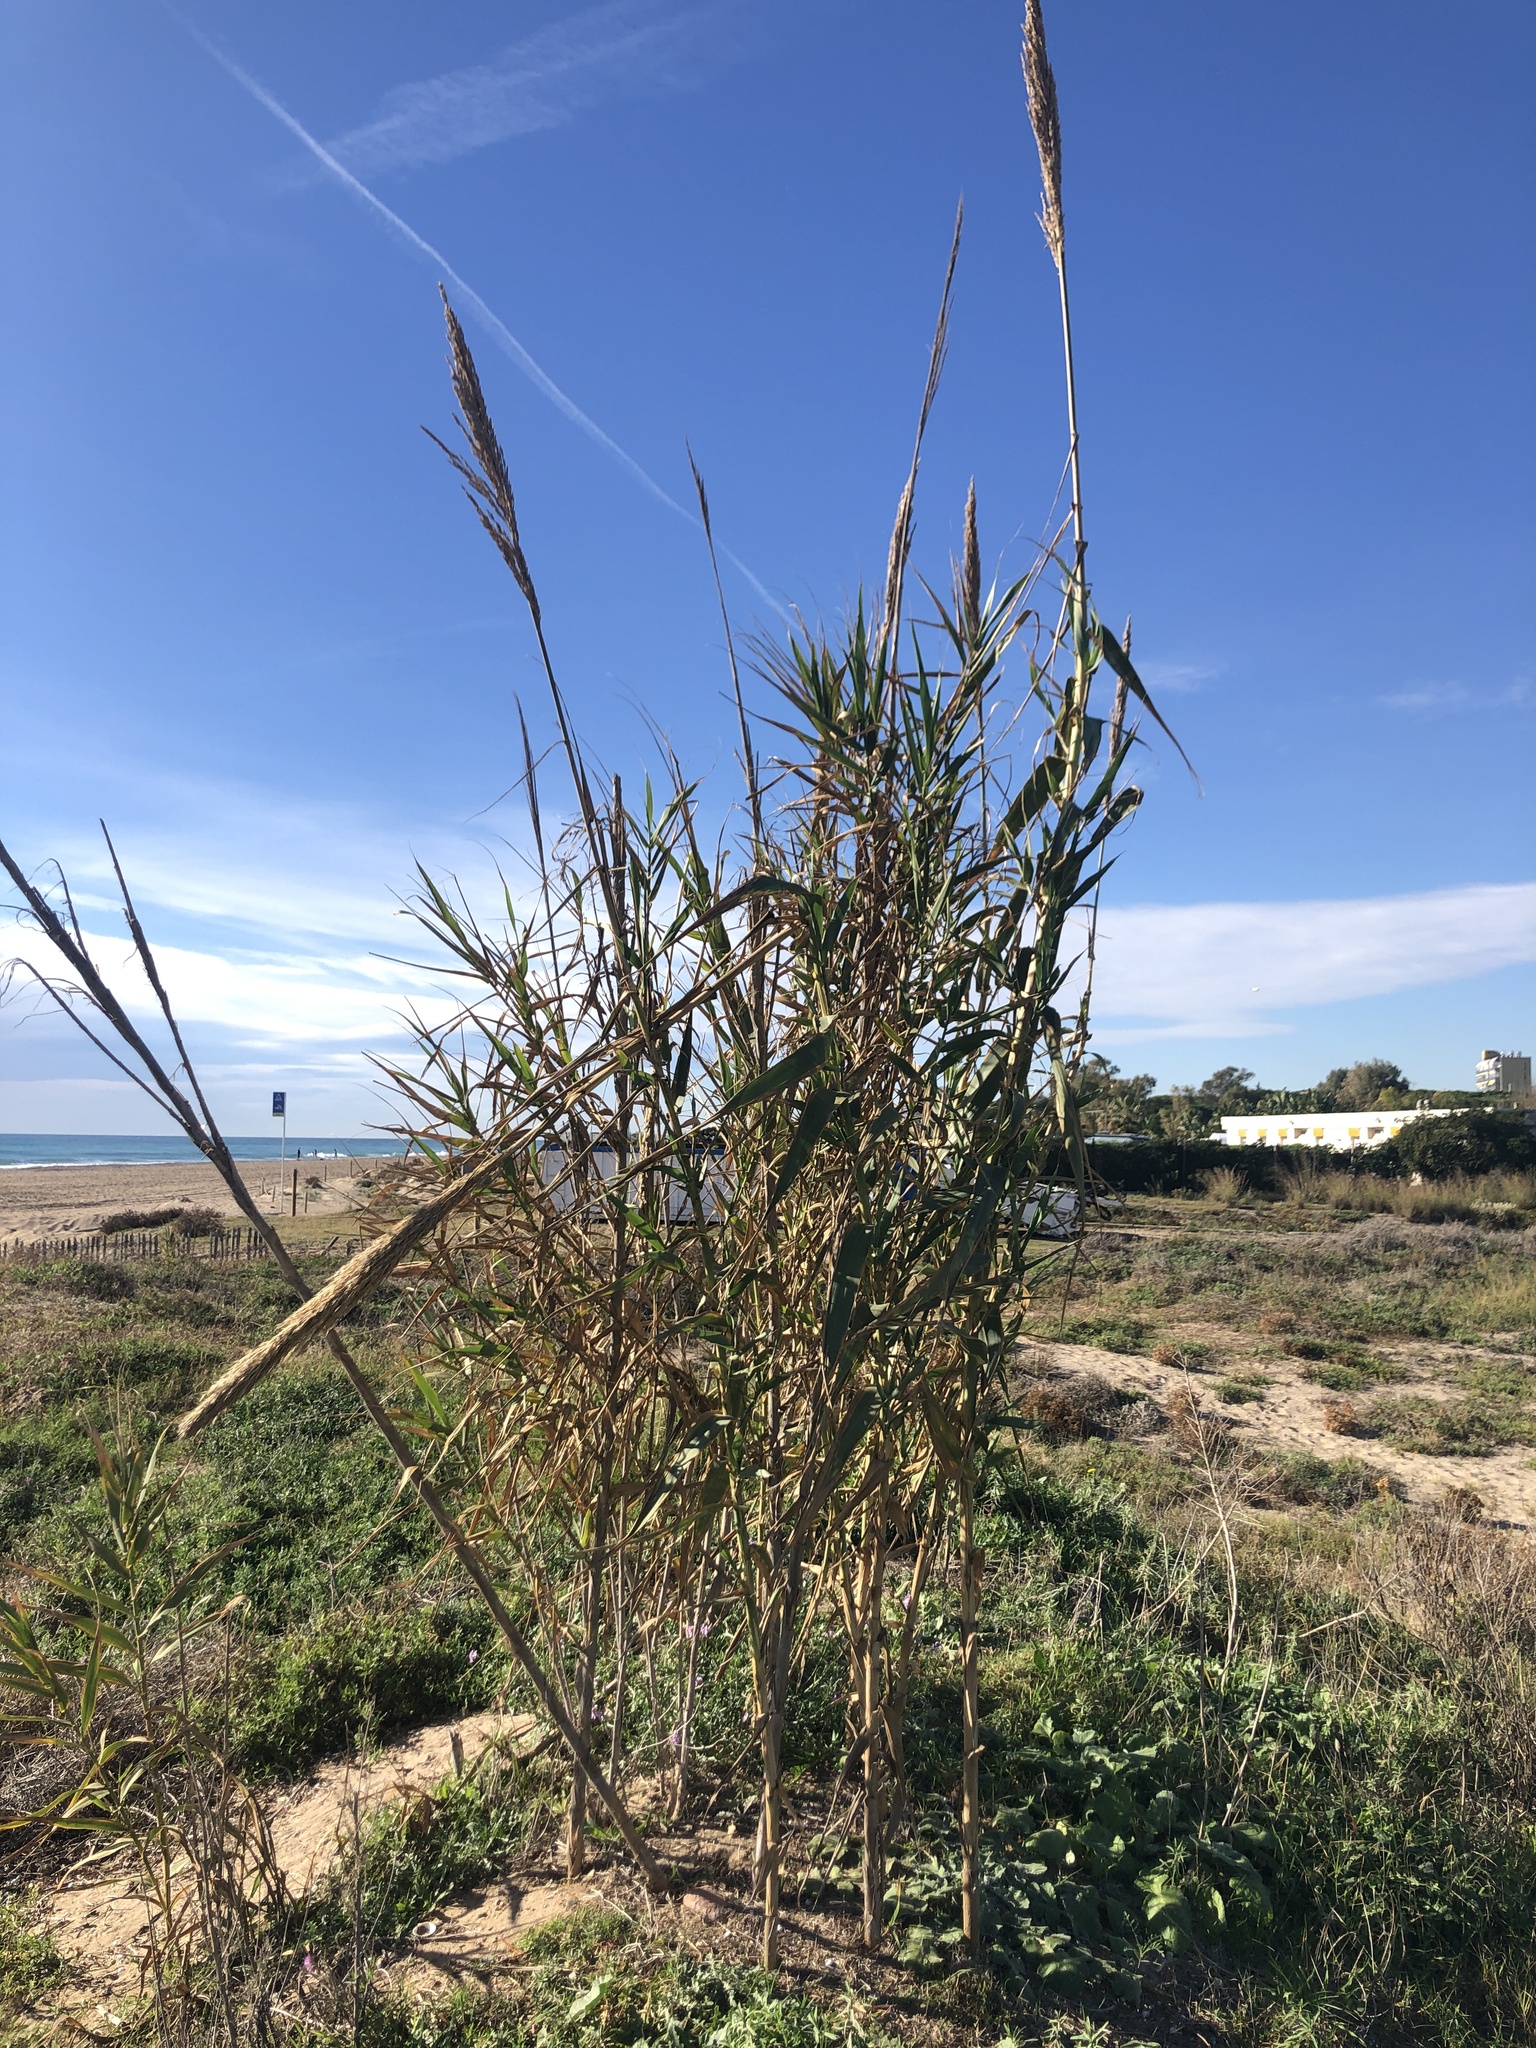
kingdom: Plantae
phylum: Tracheophyta
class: Liliopsida
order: Poales
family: Poaceae
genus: Arundo
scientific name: Arundo donax
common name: Giant reed
